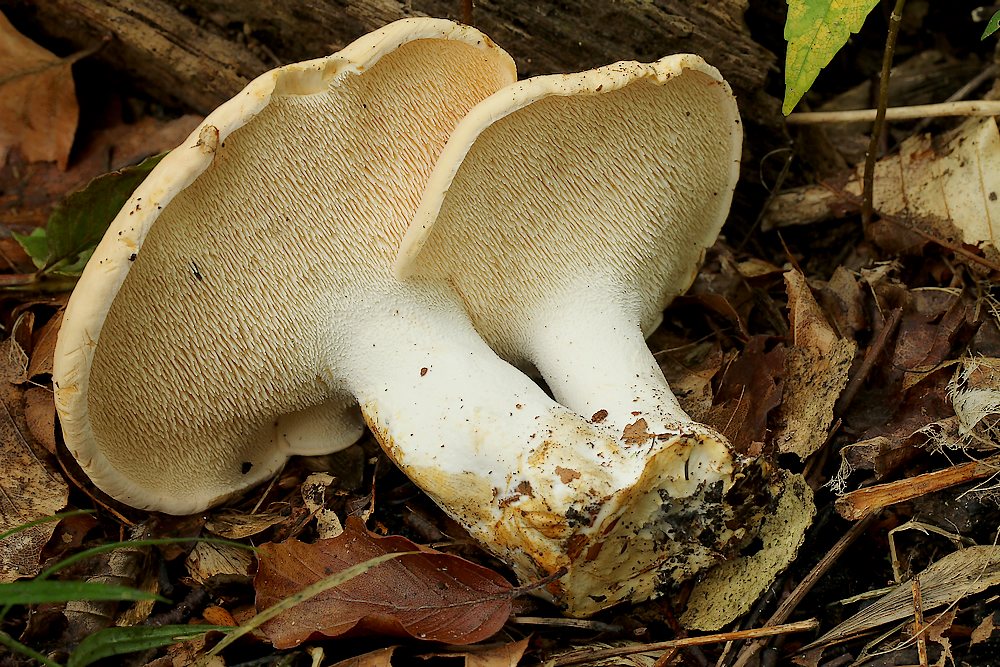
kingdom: Fungi
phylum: Basidiomycota
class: Agaricomycetes
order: Cantharellales
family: Hydnaceae
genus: Hydnum
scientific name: Hydnum
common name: pigsvamp
